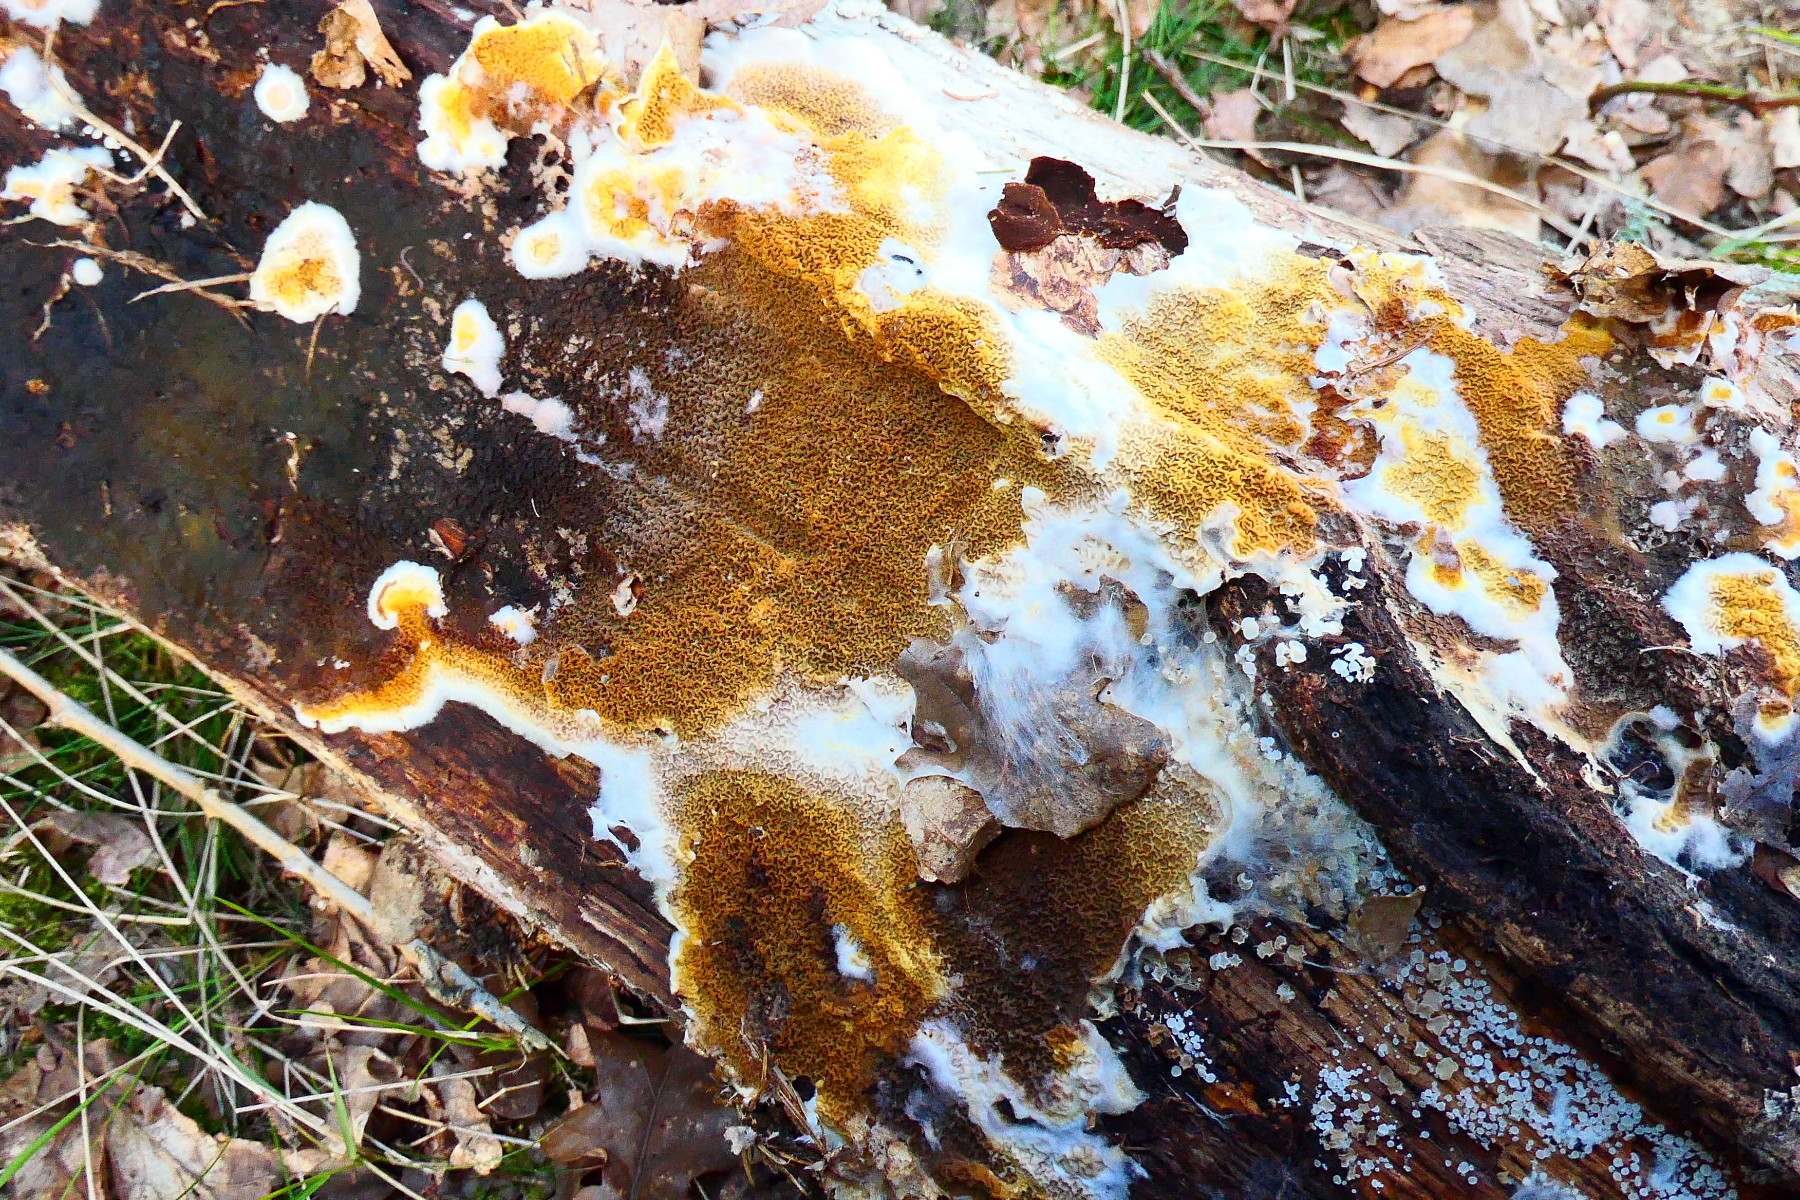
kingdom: Fungi
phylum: Basidiomycota
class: Agaricomycetes
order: Boletales
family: Serpulaceae
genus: Serpula
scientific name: Serpula himantioides
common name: tyndkødet hussvamp
